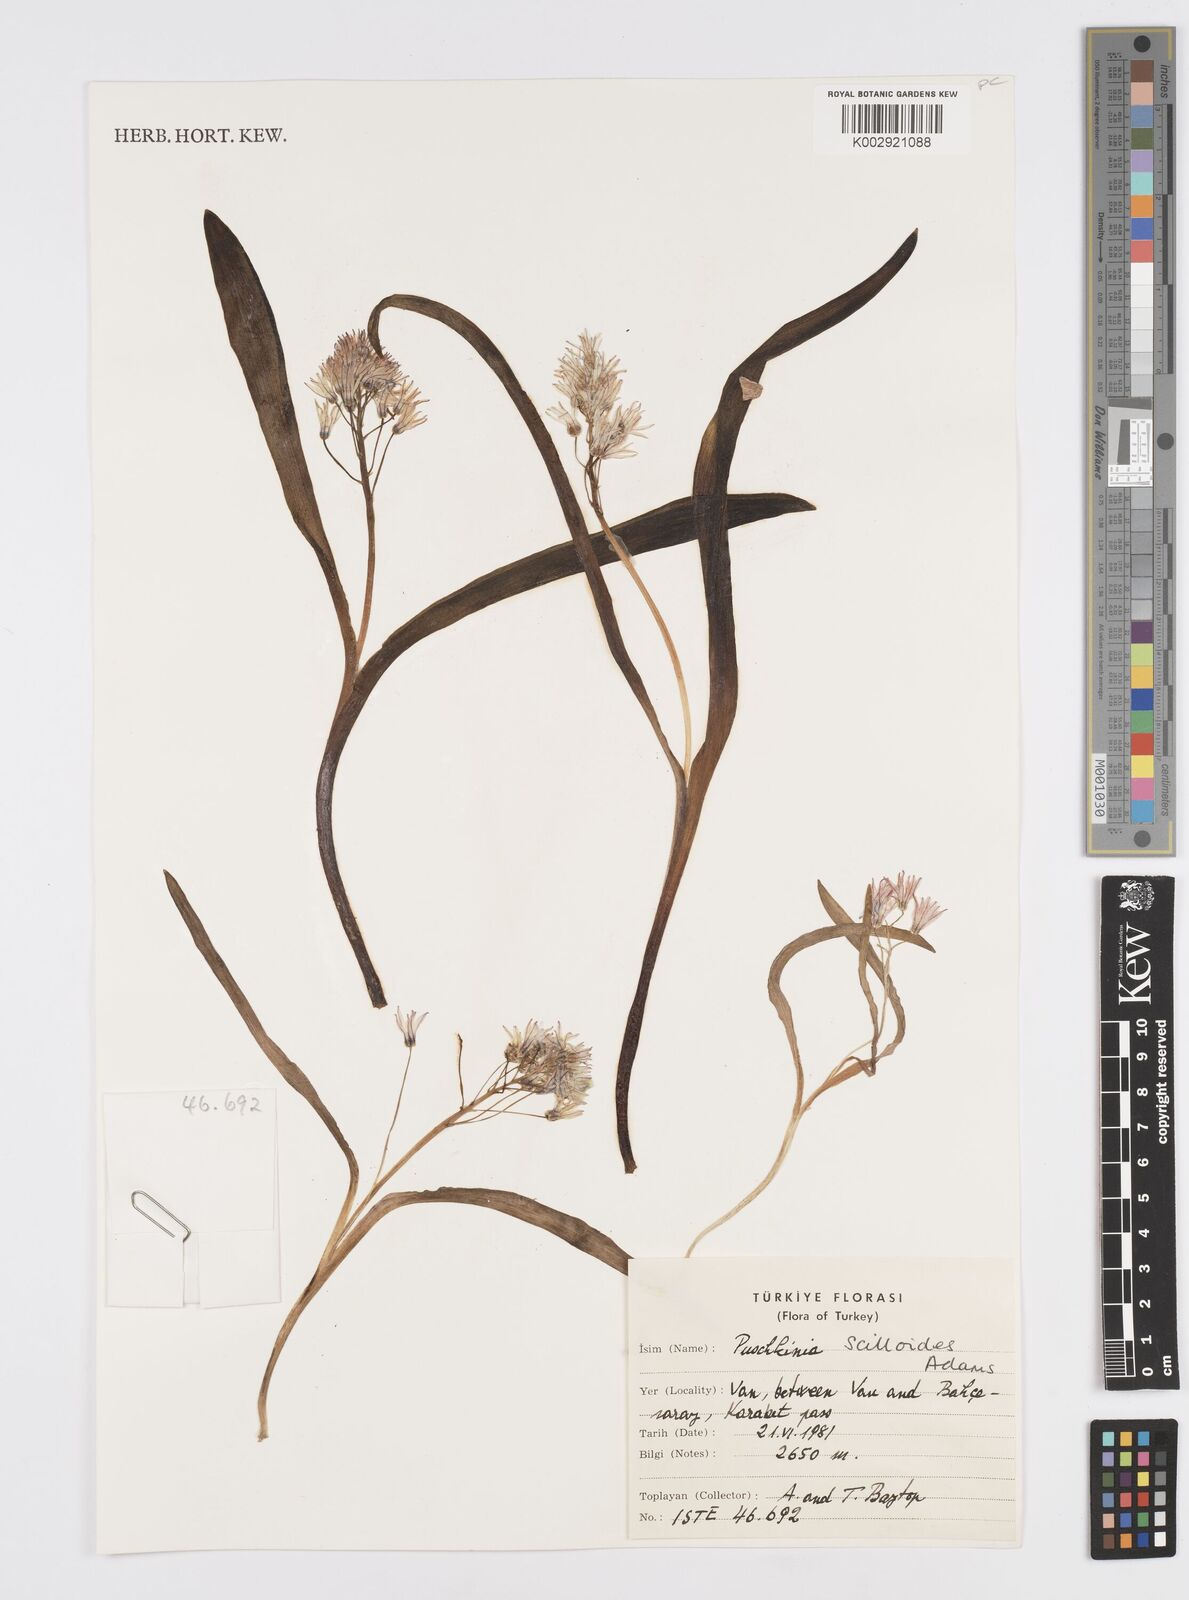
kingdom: Plantae
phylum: Tracheophyta
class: Liliopsida
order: Asparagales
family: Asparagaceae
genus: Puschkinia
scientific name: Puschkinia scilloides
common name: Striped squill
